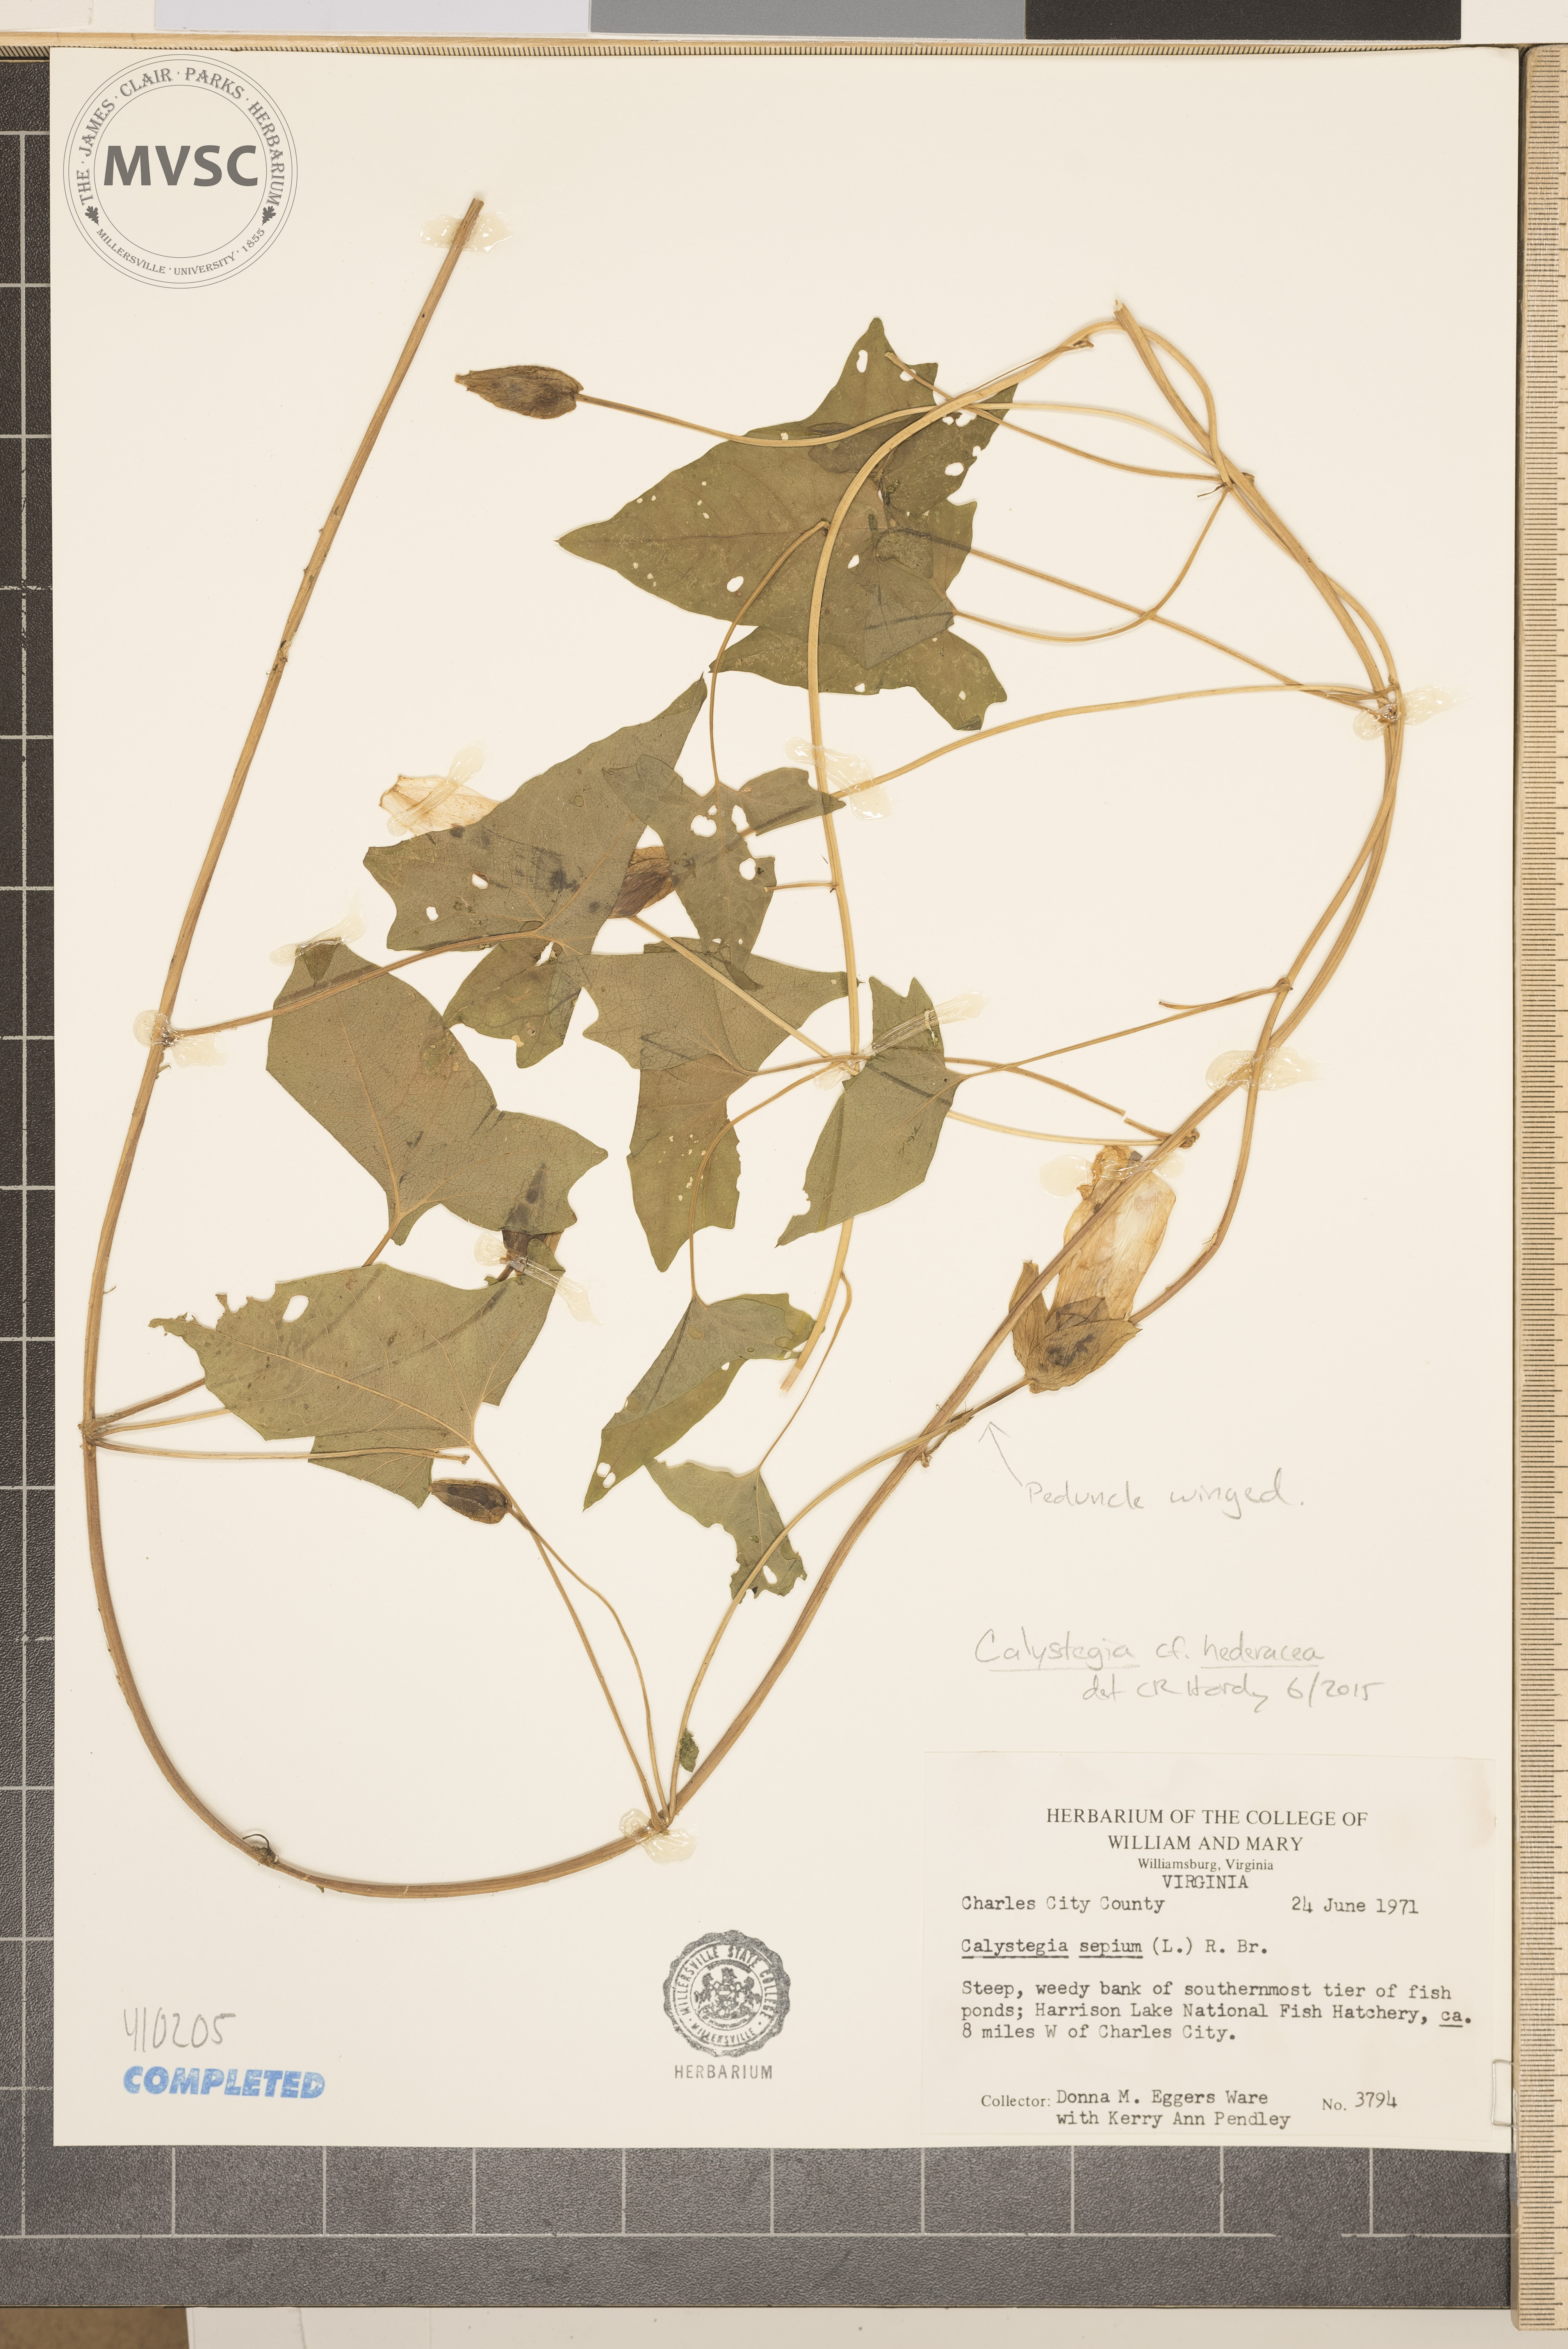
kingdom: Plantae
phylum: Tracheophyta
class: Magnoliopsida
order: Solanales
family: Convolvulaceae
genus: Calystegia
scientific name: Calystegia hederacea
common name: Bindweed
